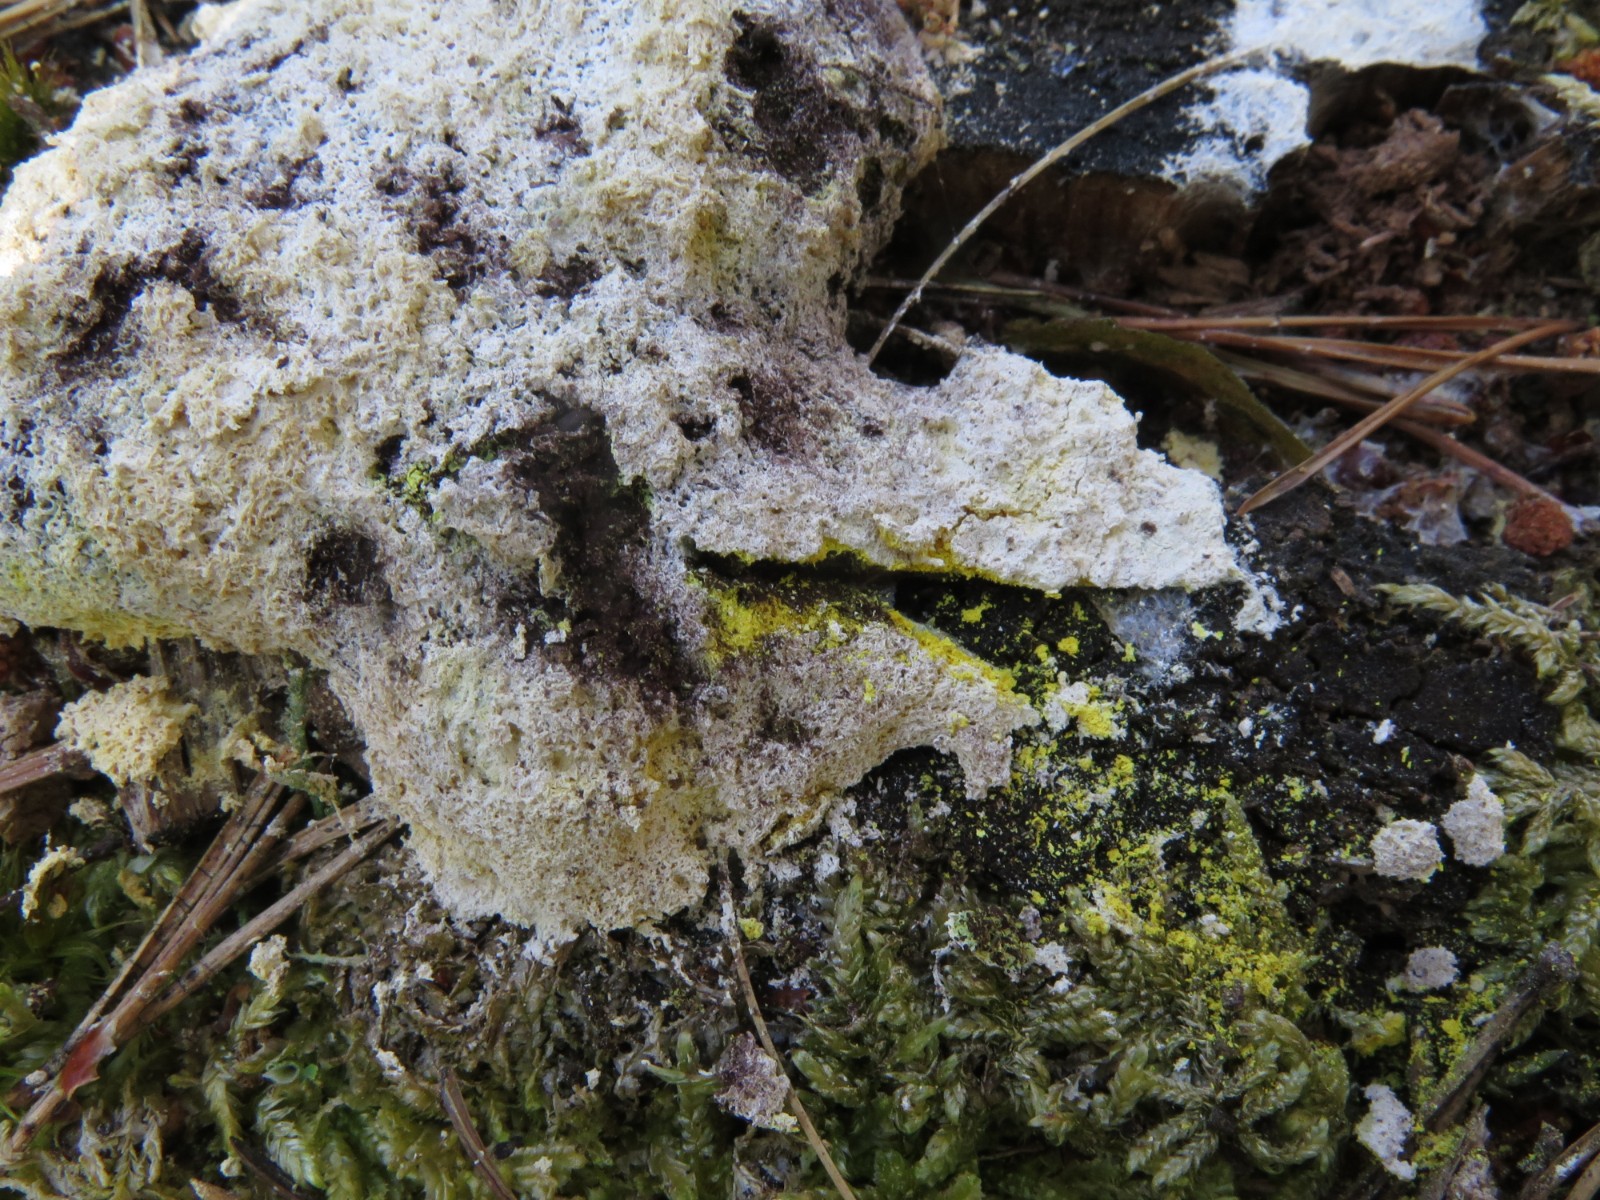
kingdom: Protozoa
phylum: Mycetozoa
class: Myxomycetes
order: Physarales
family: Physaraceae
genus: Fuligo
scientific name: Fuligo septica
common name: gul troldsmør
